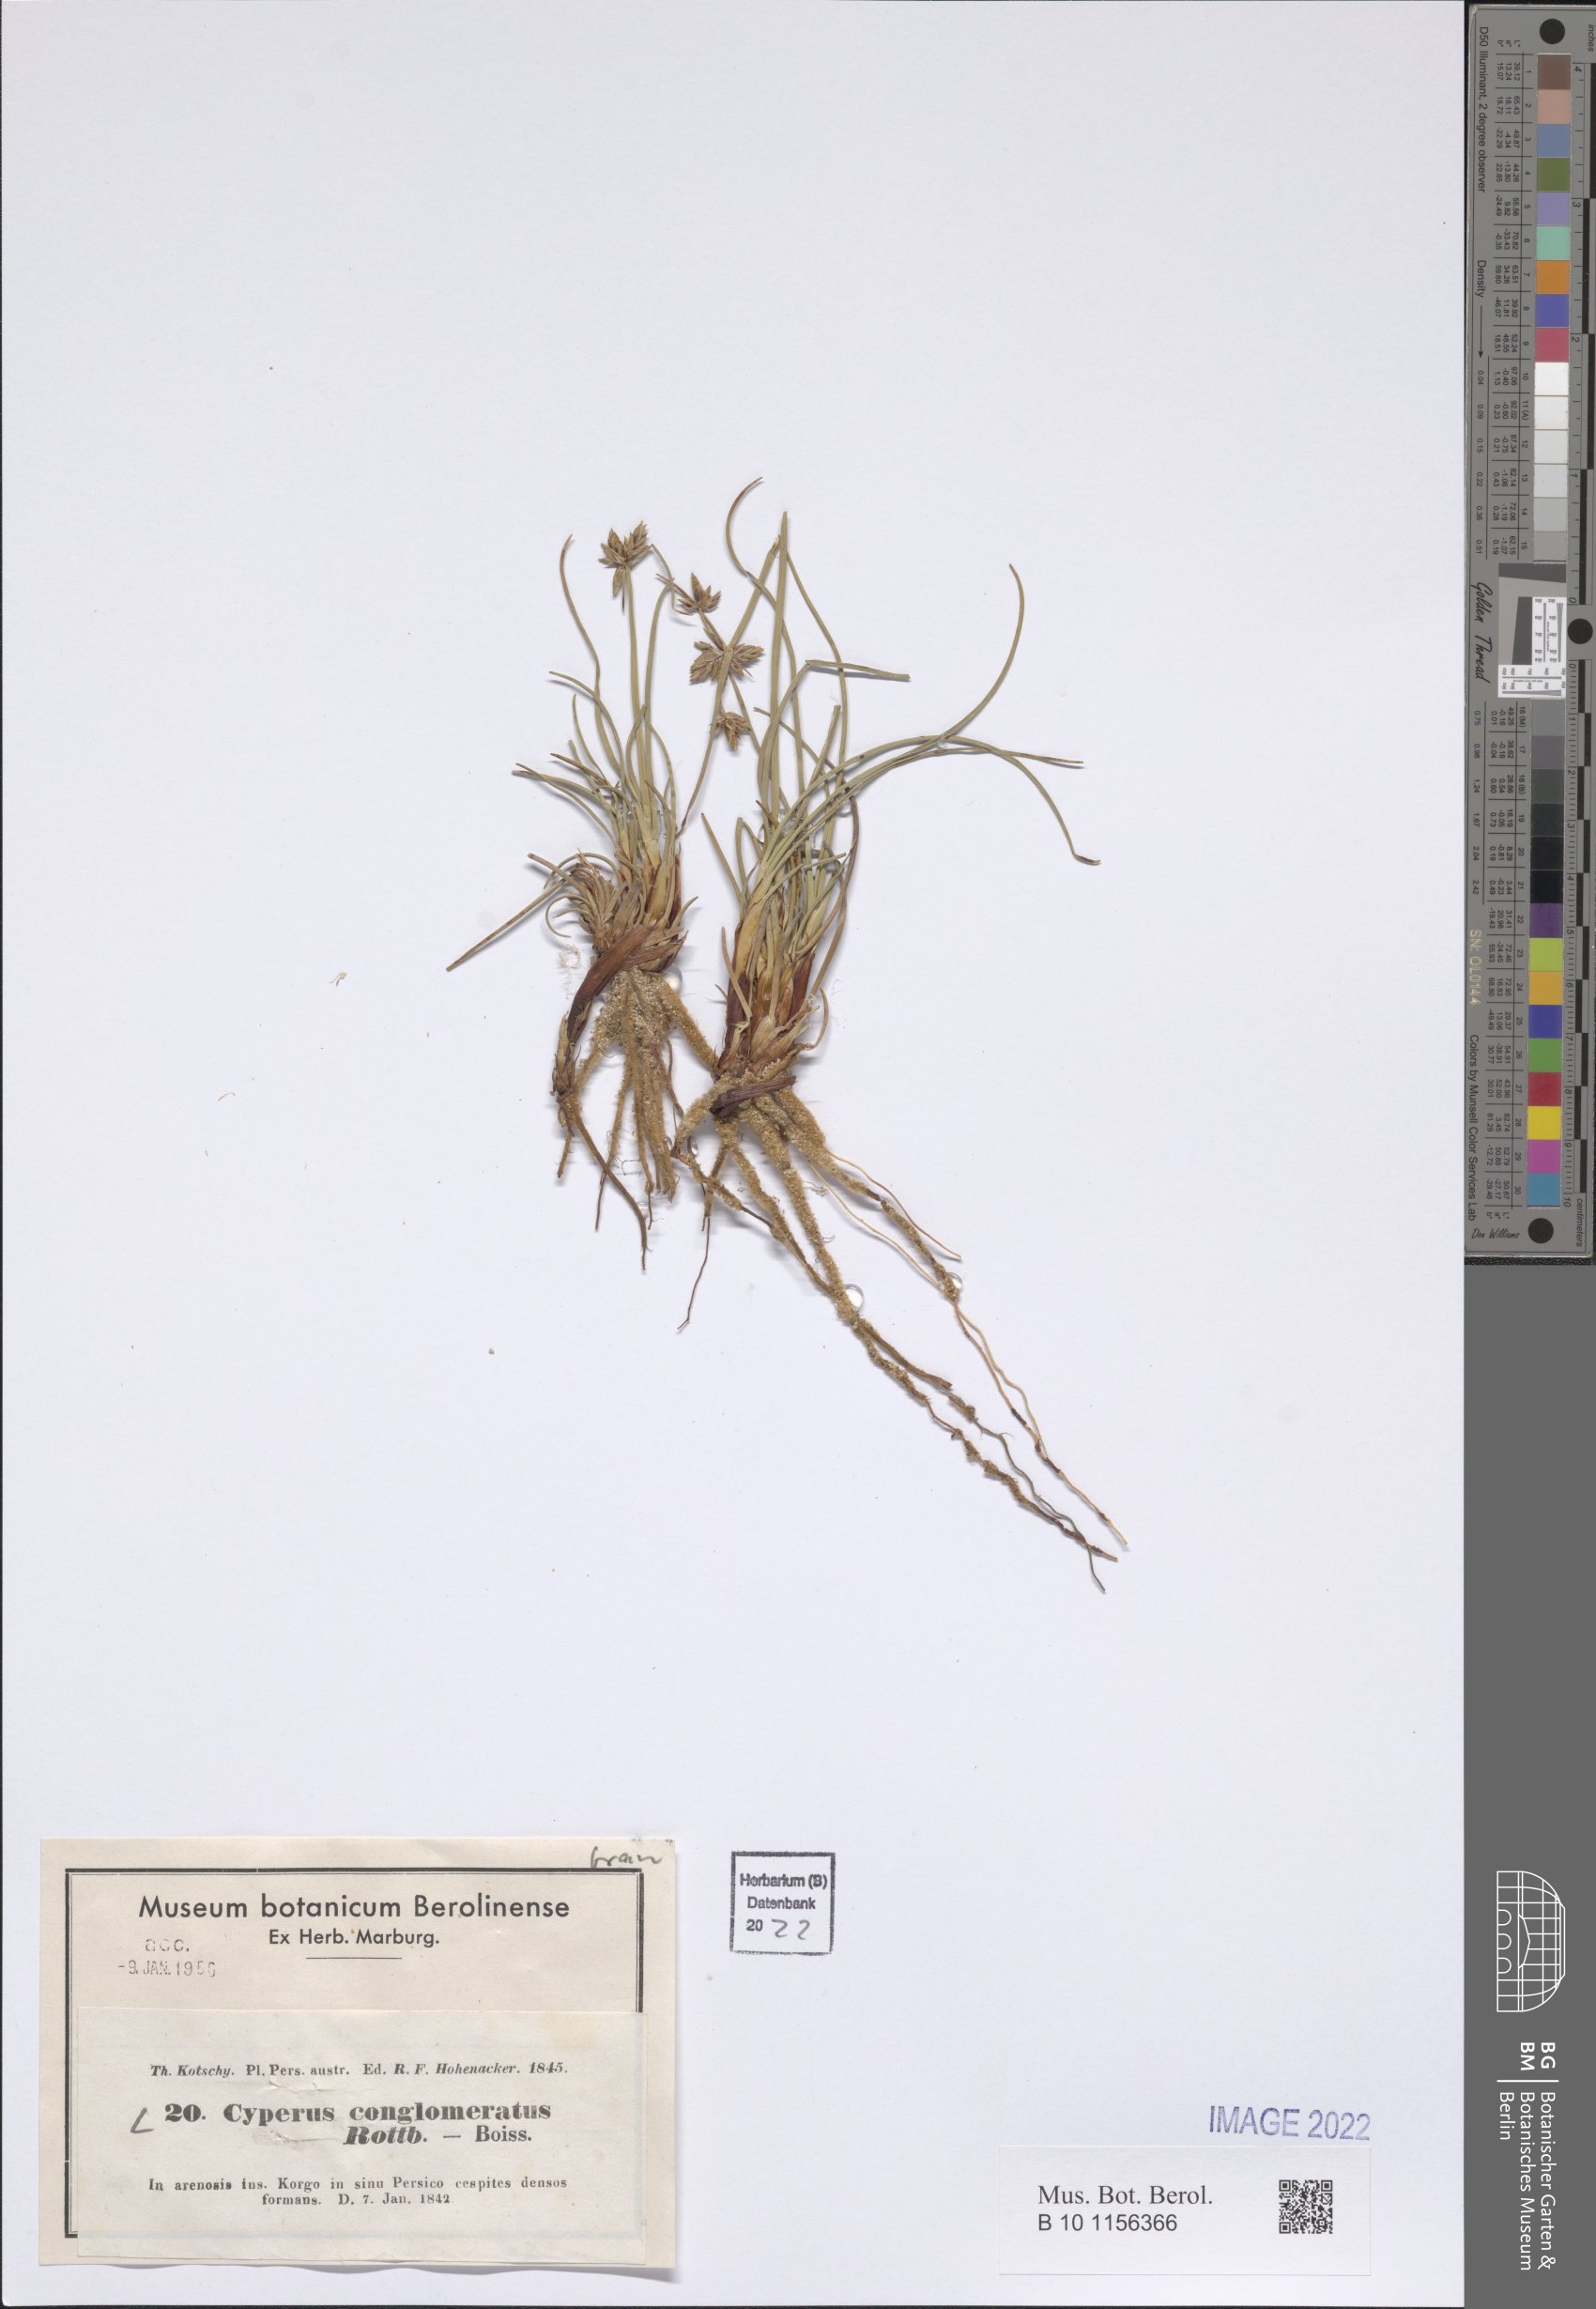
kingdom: Plantae
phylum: Tracheophyta
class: Liliopsida
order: Poales
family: Cyperaceae
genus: Cyperus
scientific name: Cyperus conglomeratus
